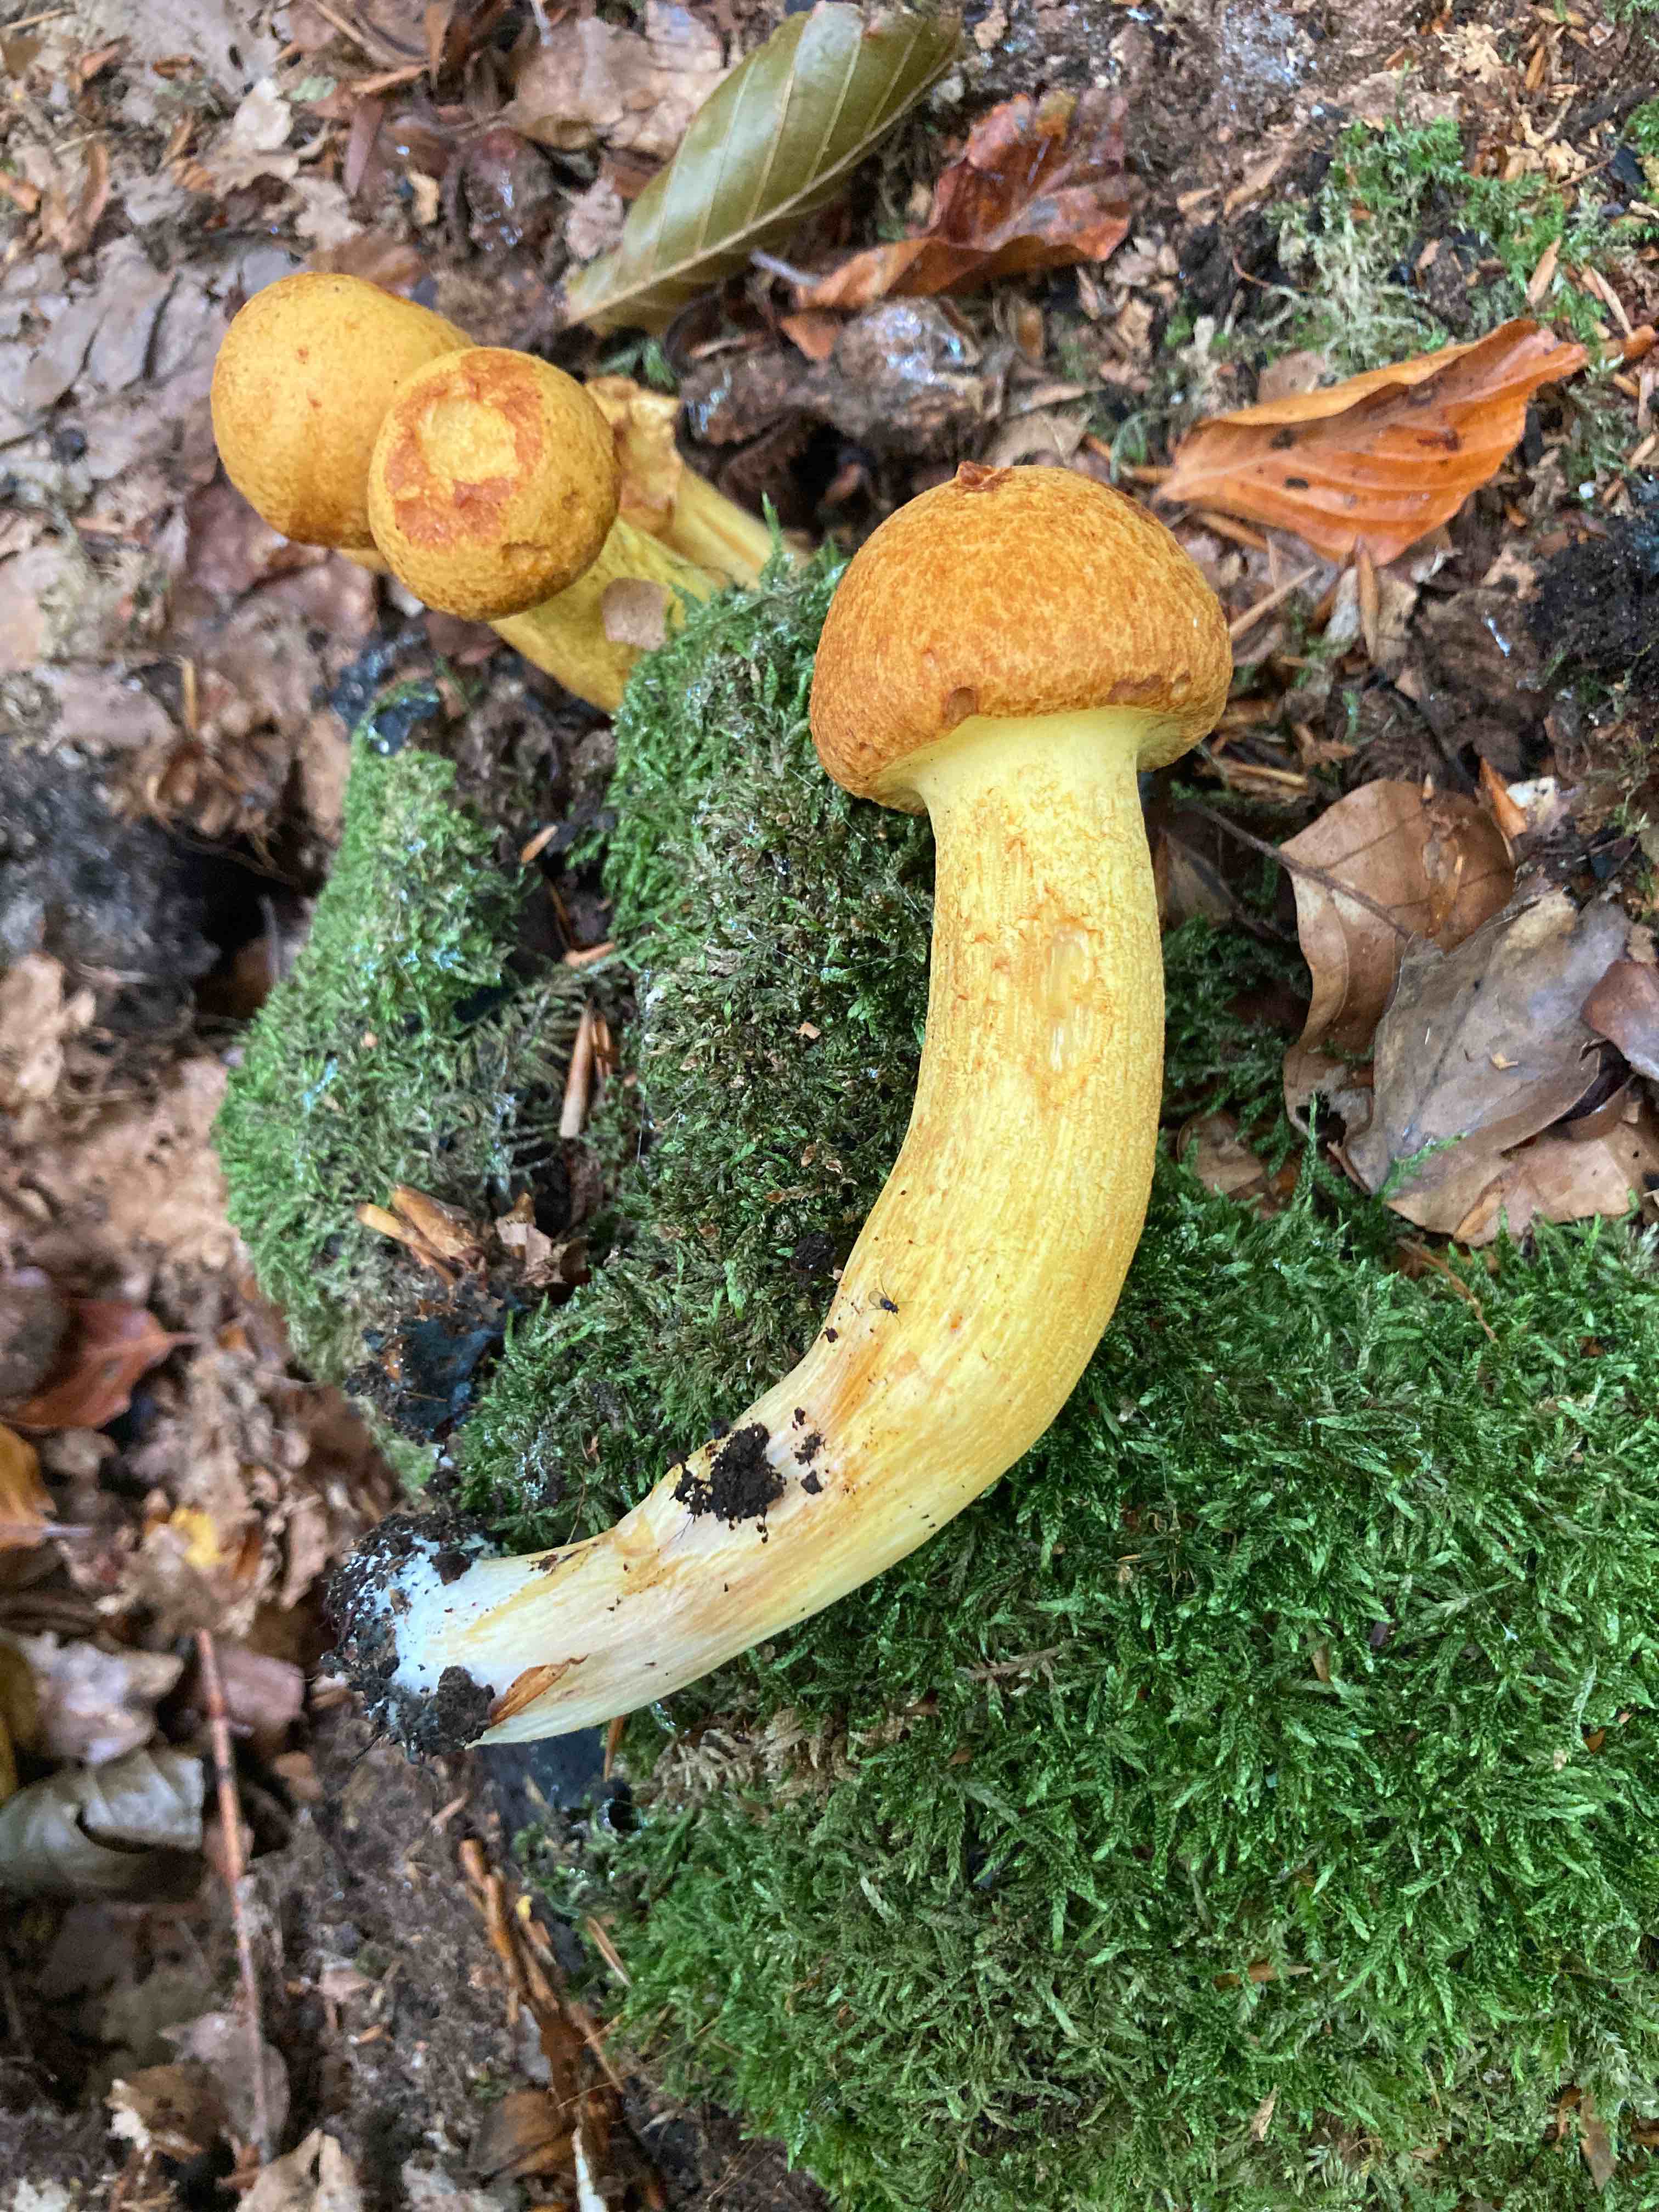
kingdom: Fungi
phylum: Basidiomycota
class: Agaricomycetes
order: Agaricales
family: Hymenogastraceae
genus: Gymnopilus
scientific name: Gymnopilus spectabilis
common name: fibret flammehat
